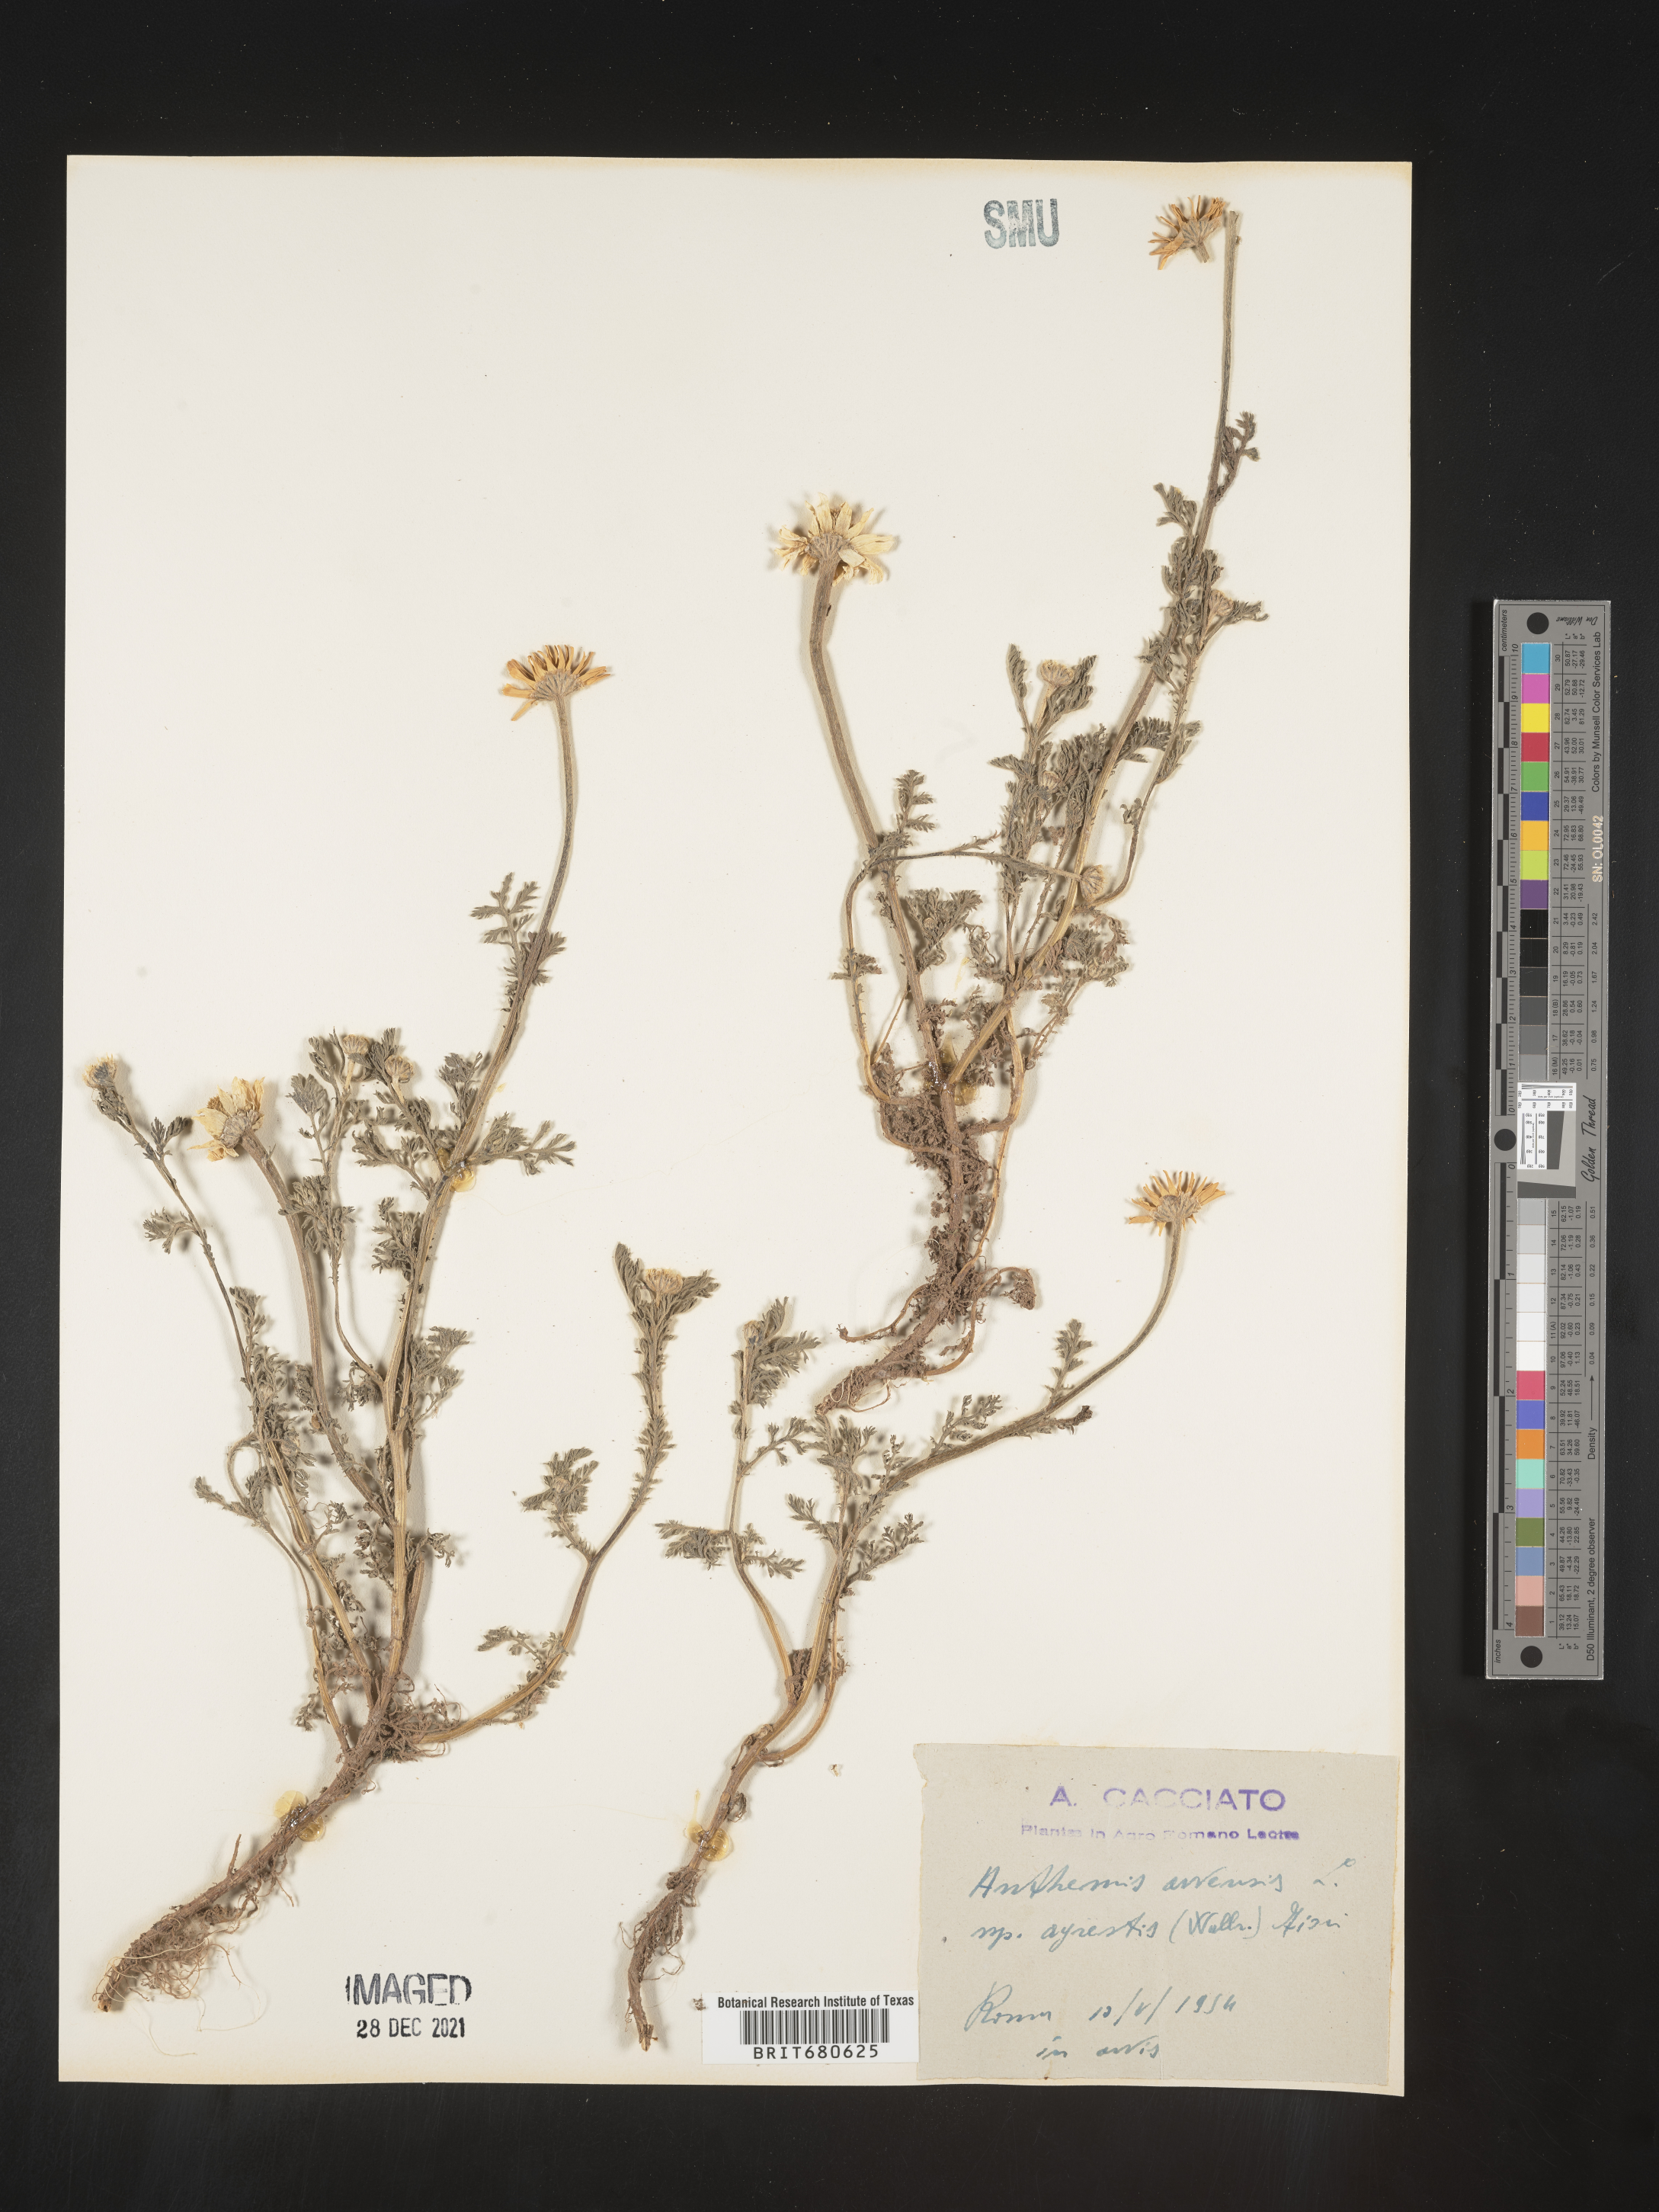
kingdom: Plantae
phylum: Tracheophyta
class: Magnoliopsida
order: Asterales
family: Asteraceae
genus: Anthemis
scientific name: Anthemis
